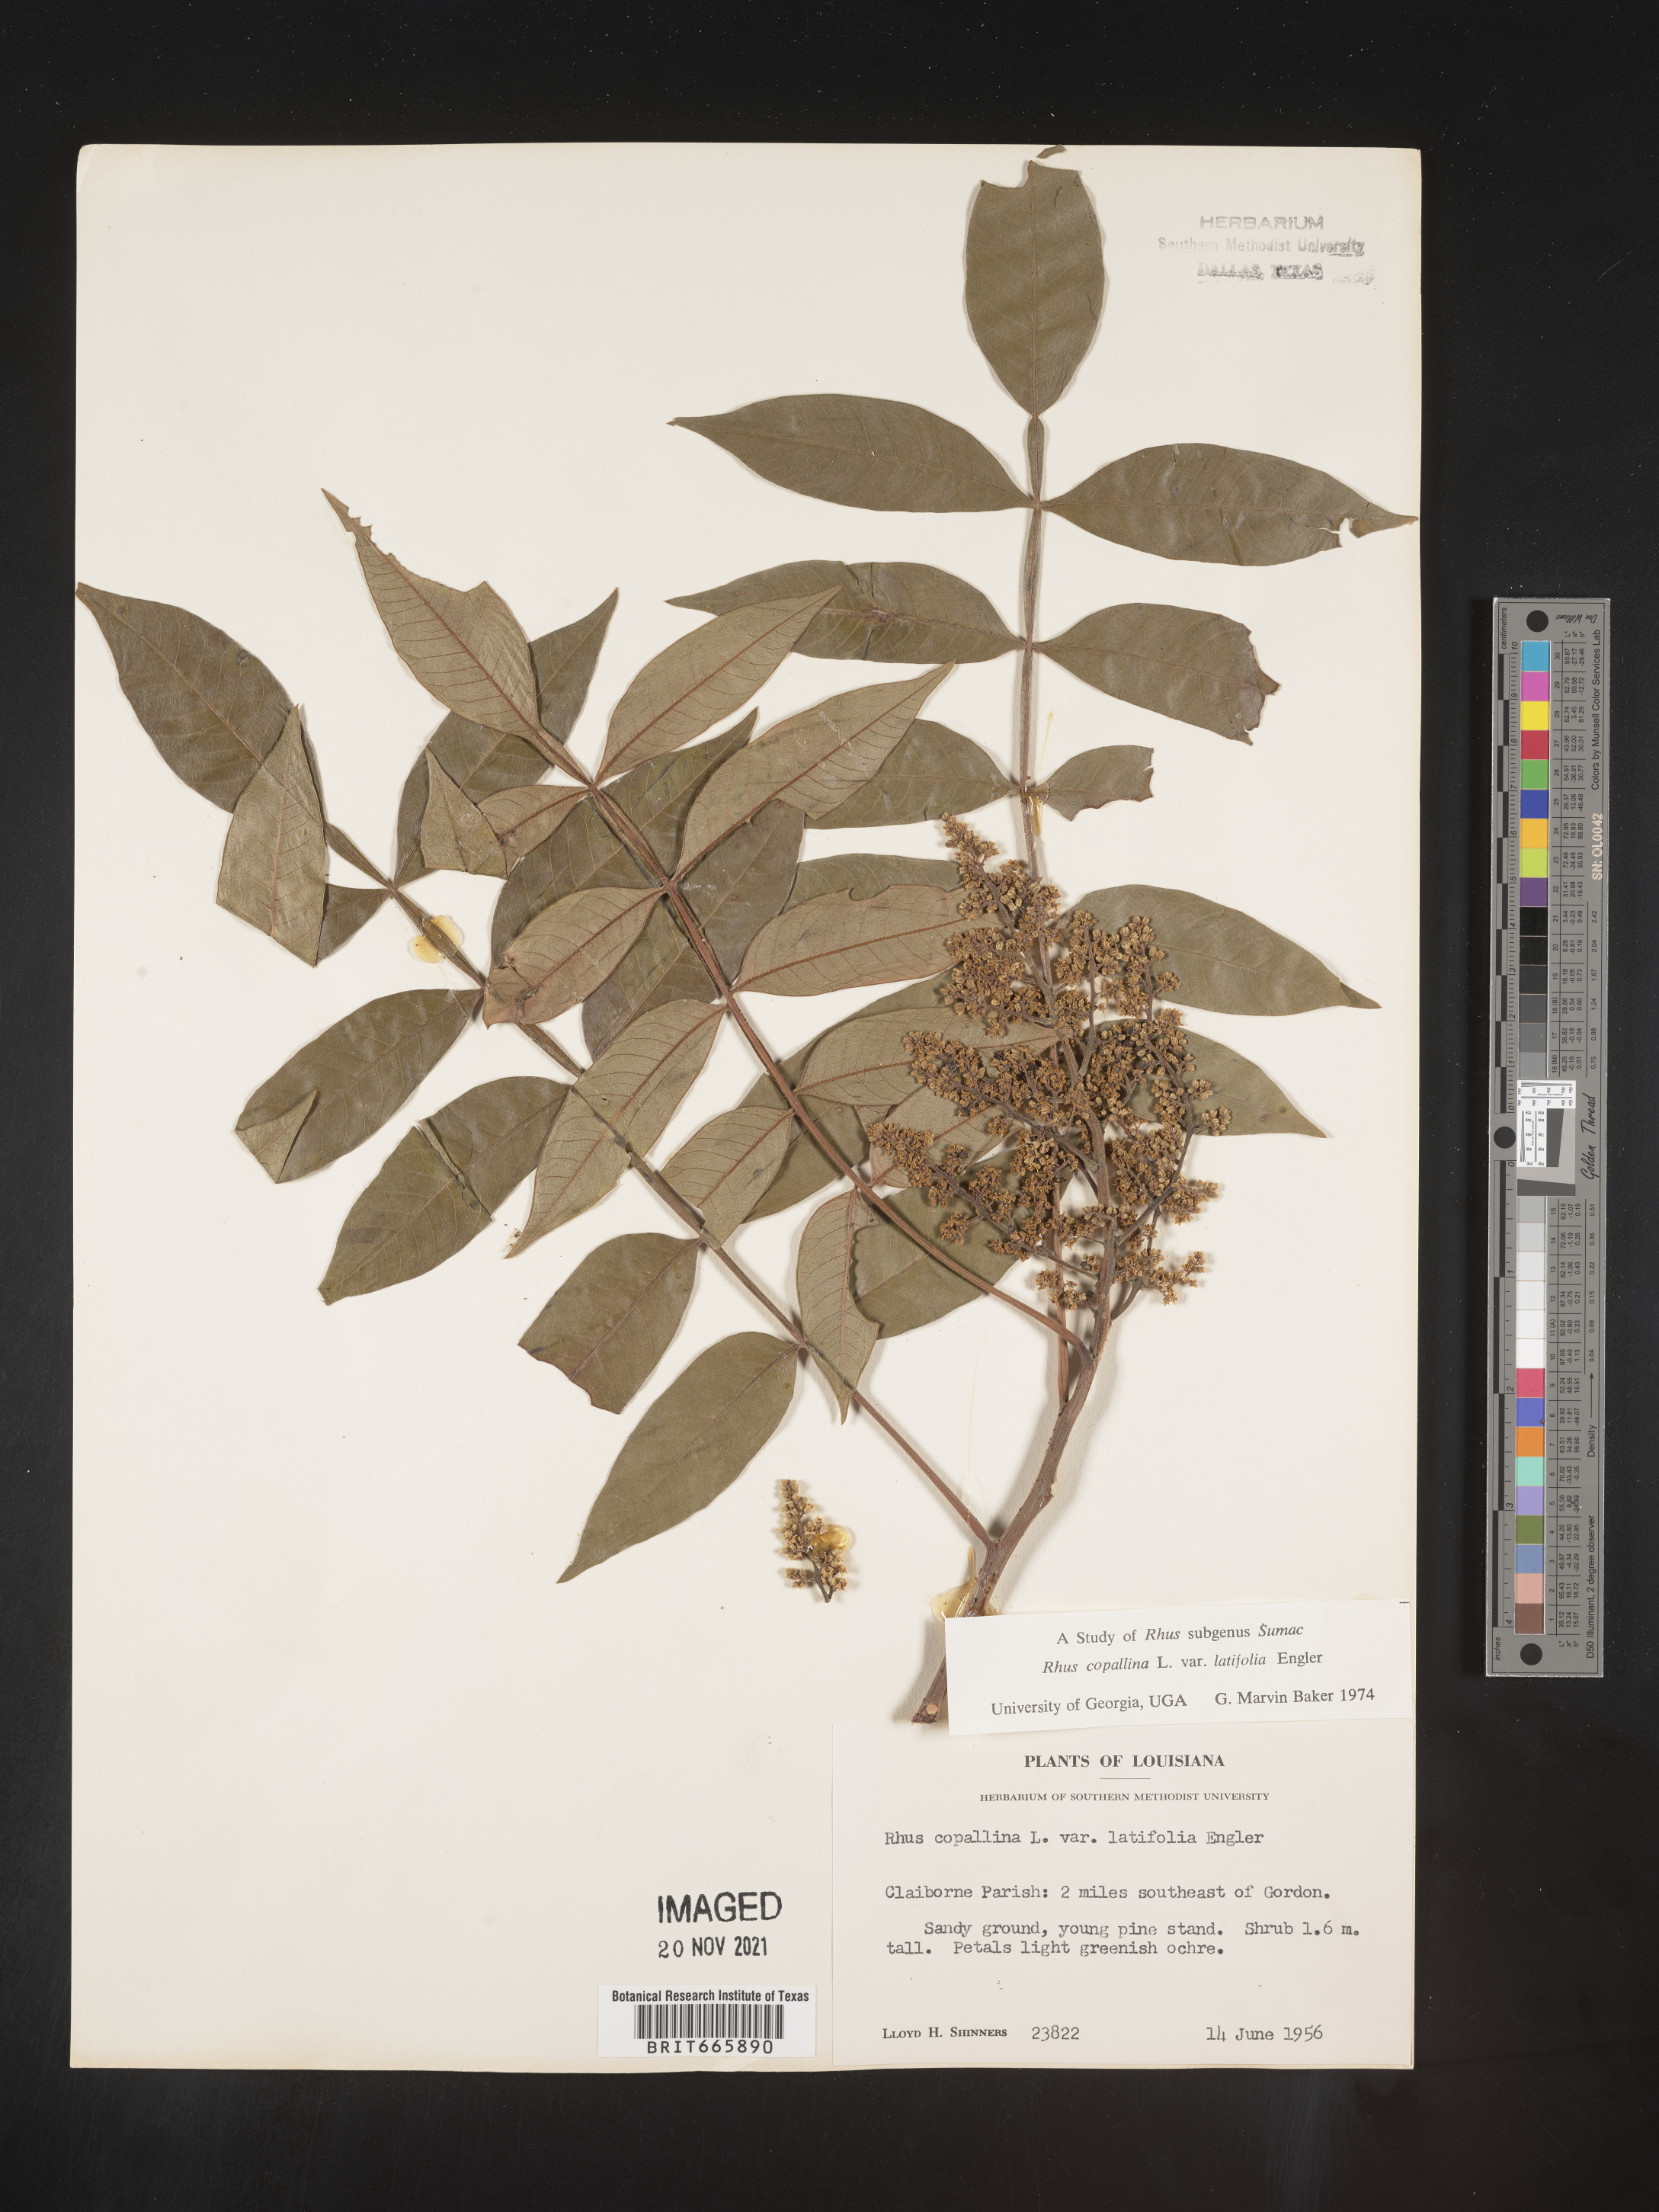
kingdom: Plantae
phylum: Tracheophyta
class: Magnoliopsida
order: Sapindales
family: Anacardiaceae
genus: Rhus
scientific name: Rhus copallina
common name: Shining sumac
